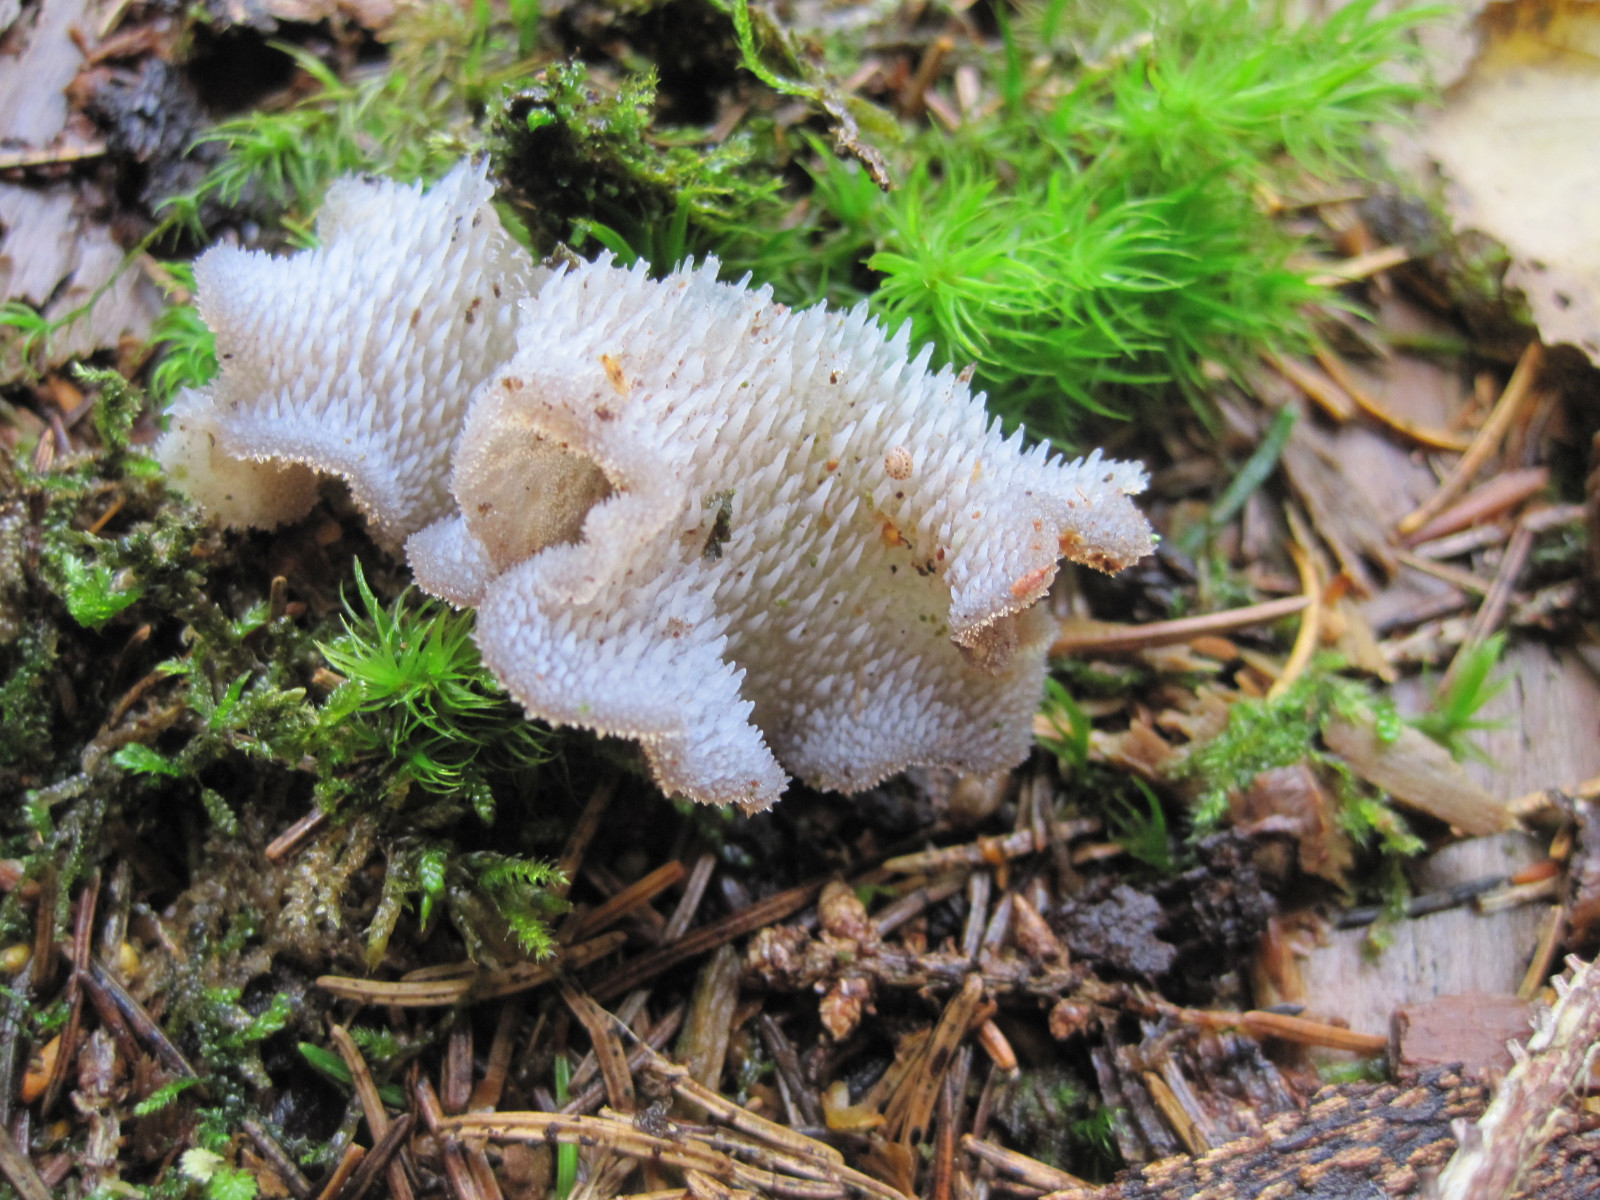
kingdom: Fungi
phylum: Basidiomycota
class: Agaricomycetes
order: Auriculariales
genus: Pseudohydnum
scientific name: Pseudohydnum gelatinosum
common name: bævretand
